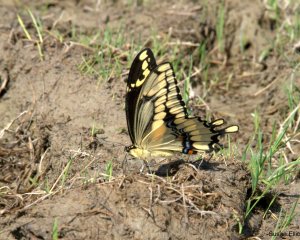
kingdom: Animalia
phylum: Arthropoda
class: Insecta
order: Lepidoptera
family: Papilionidae
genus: Papilio
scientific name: Papilio cresphontes
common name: Eastern Giant Swallowtail
